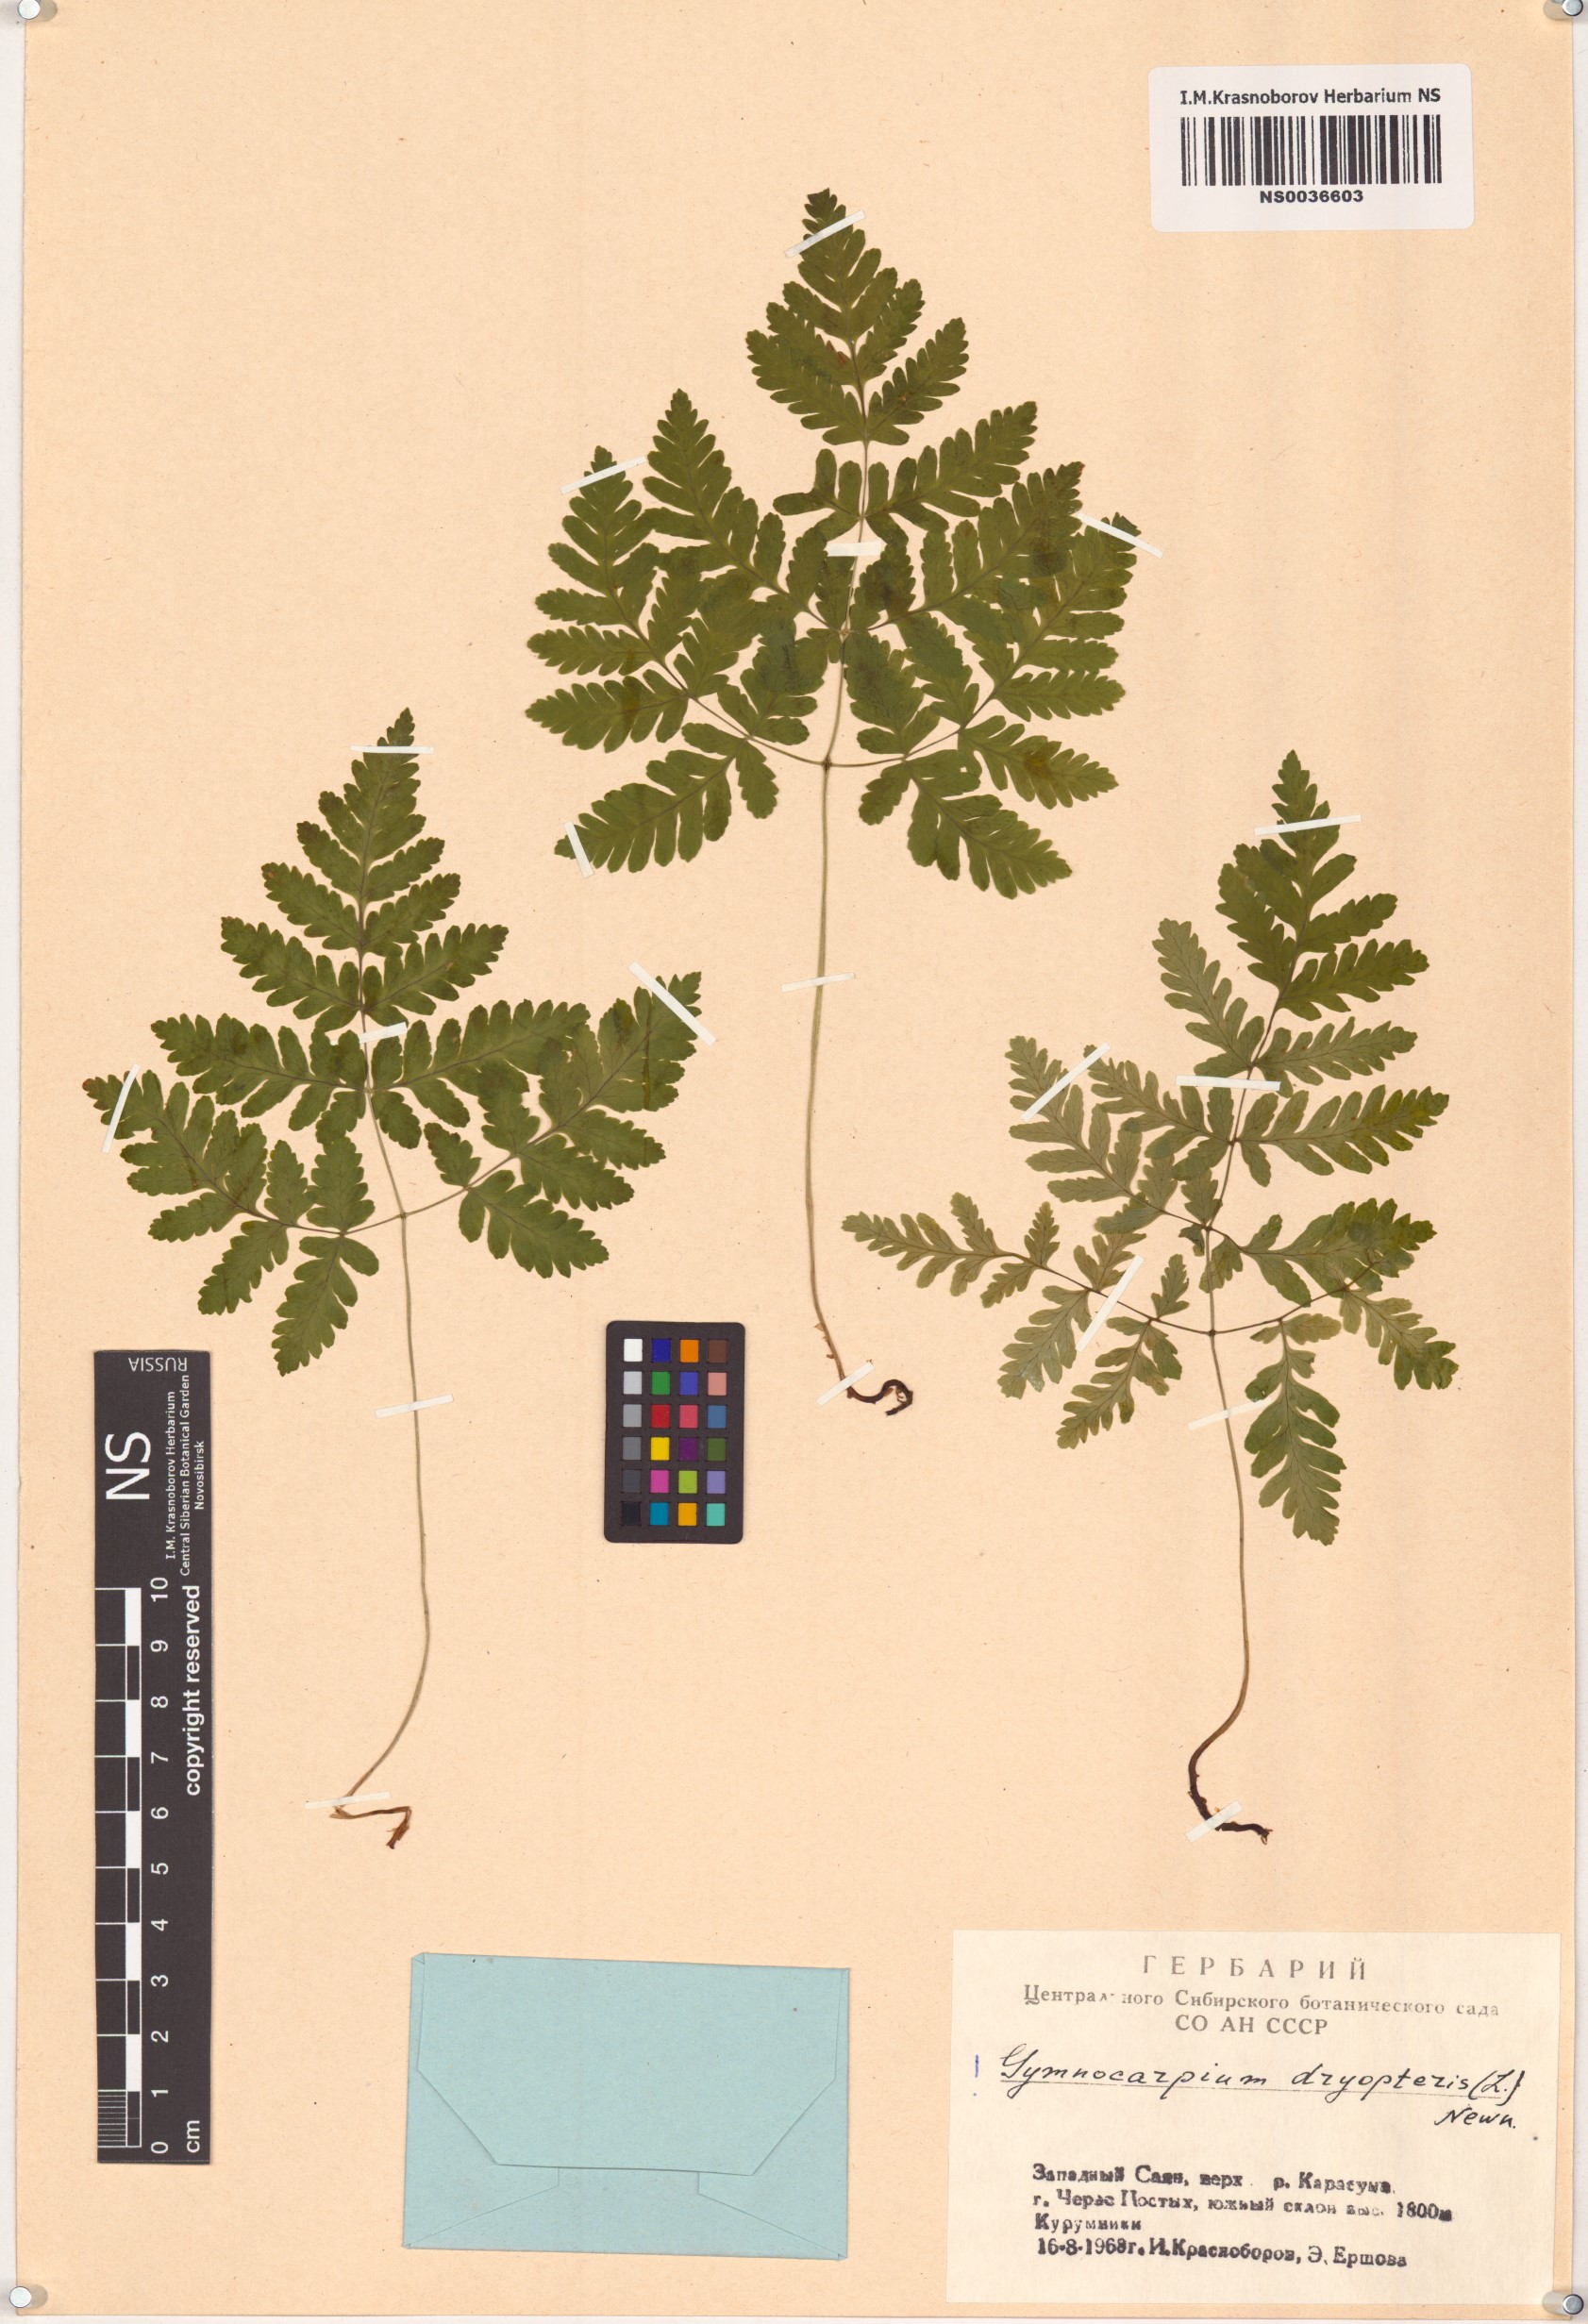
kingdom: Plantae
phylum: Tracheophyta
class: Polypodiopsida
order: Polypodiales
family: Cystopteridaceae
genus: Gymnocarpium
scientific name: Gymnocarpium dryopteris
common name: Oak fern
